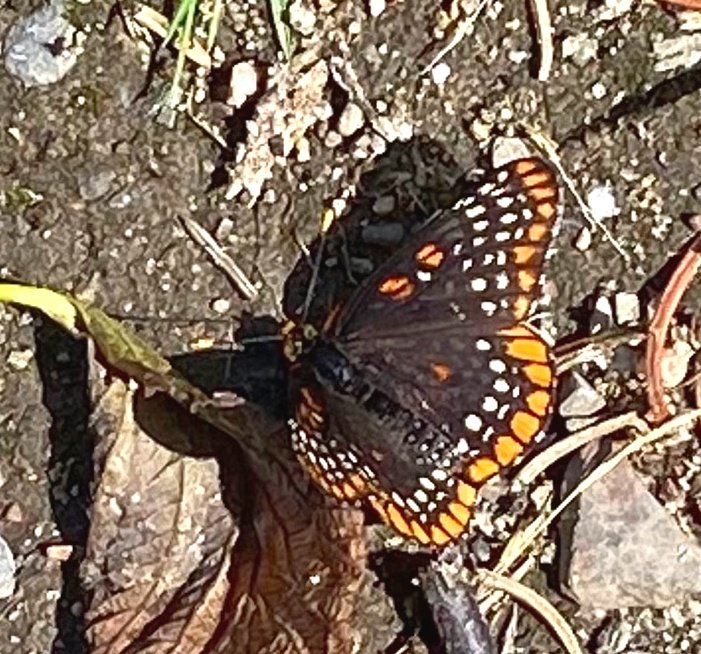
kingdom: Animalia
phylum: Arthropoda
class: Insecta
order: Lepidoptera
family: Nymphalidae
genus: Euphydryas
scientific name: Euphydryas phaeton
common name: Baltimore Checkerspot
